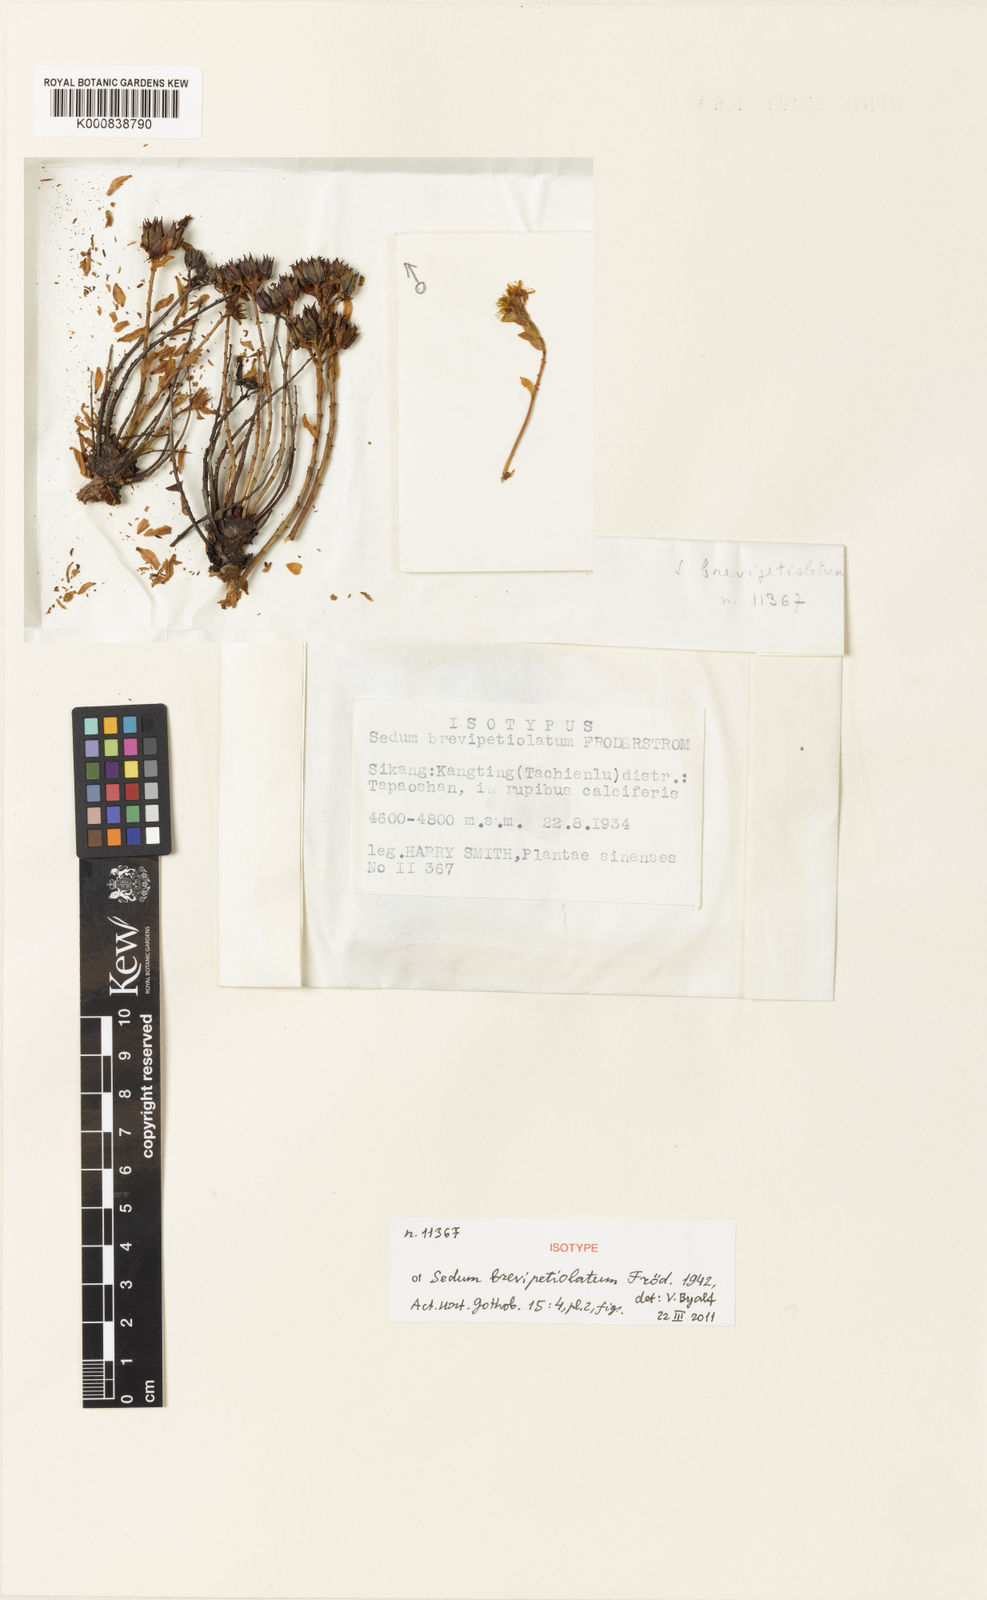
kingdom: Plantae
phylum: Tracheophyta
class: Magnoliopsida
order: Saxifragales
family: Crassulaceae
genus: Sedum
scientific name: Sedum
